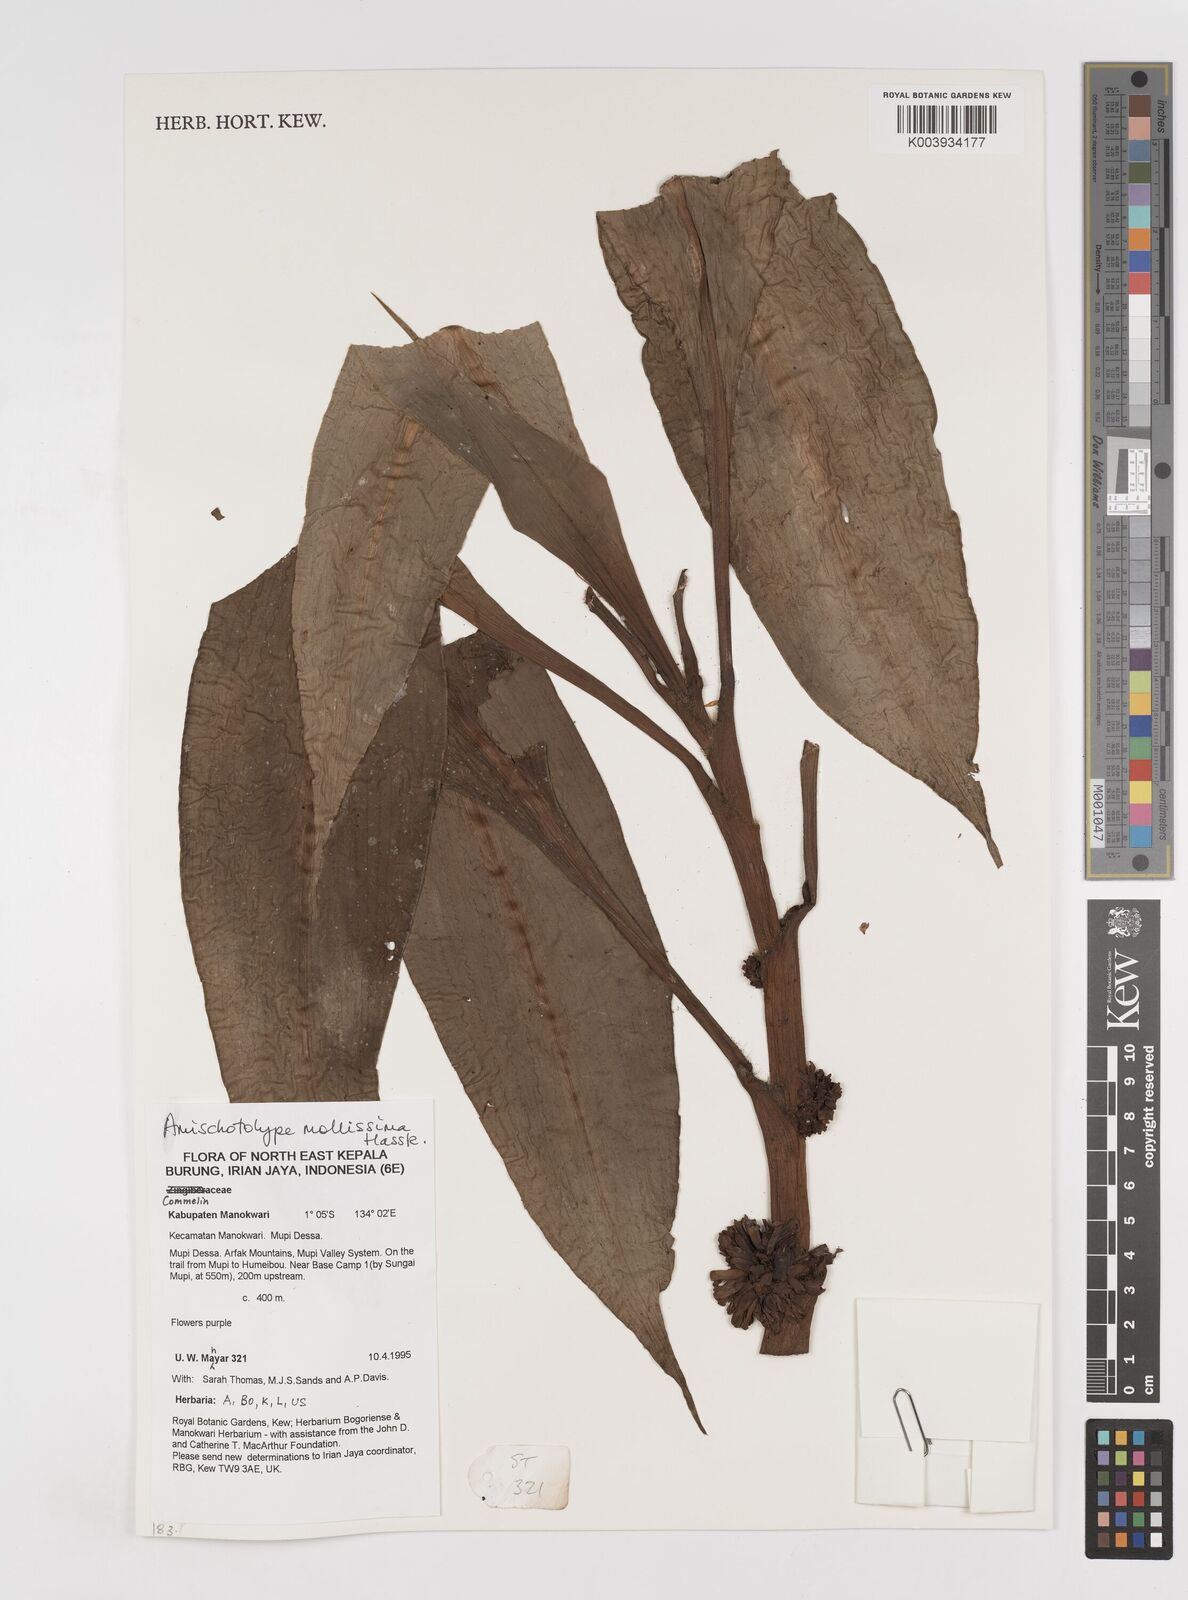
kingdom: Plantae
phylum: Tracheophyta
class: Liliopsida
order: Commelinales
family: Commelinaceae
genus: Amischotolype
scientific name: Amischotolype mollissima
